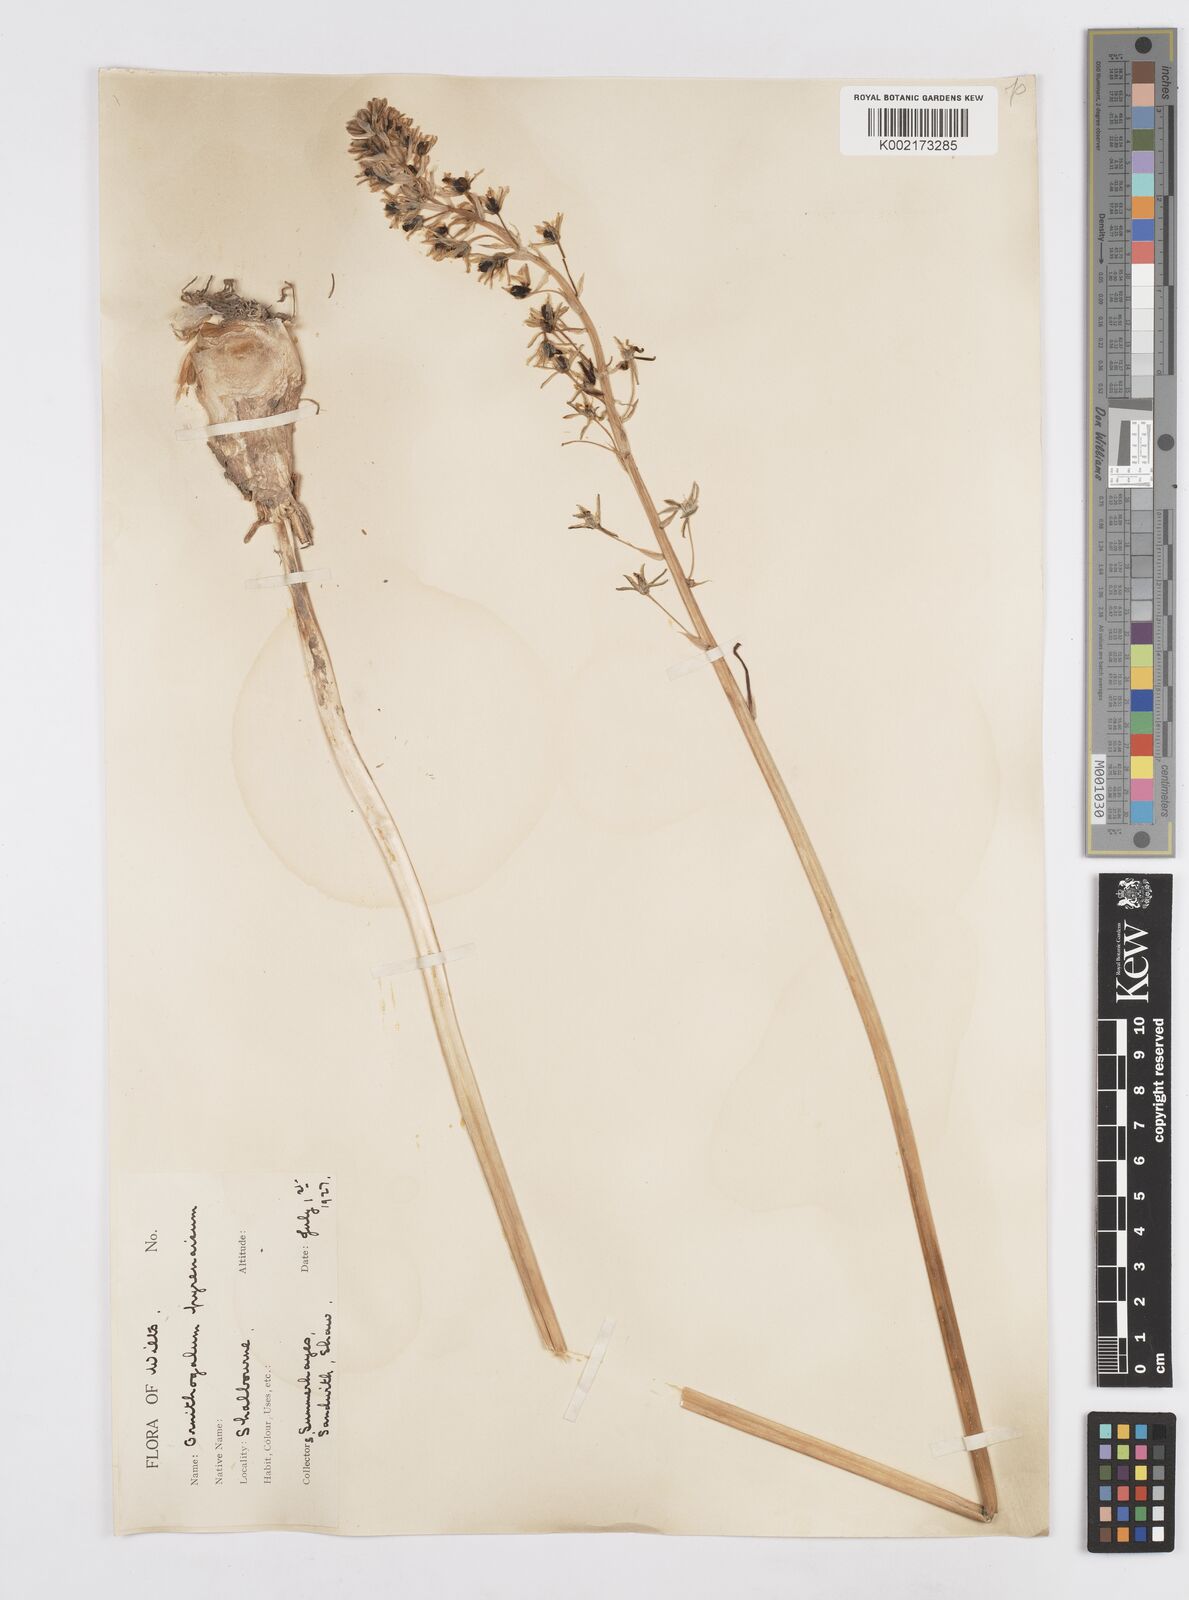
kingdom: Plantae
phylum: Tracheophyta
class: Liliopsida
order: Asparagales
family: Asparagaceae
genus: Ornithogalum
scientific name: Ornithogalum pyrenaicum
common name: Spiked star-of-bethlehem
